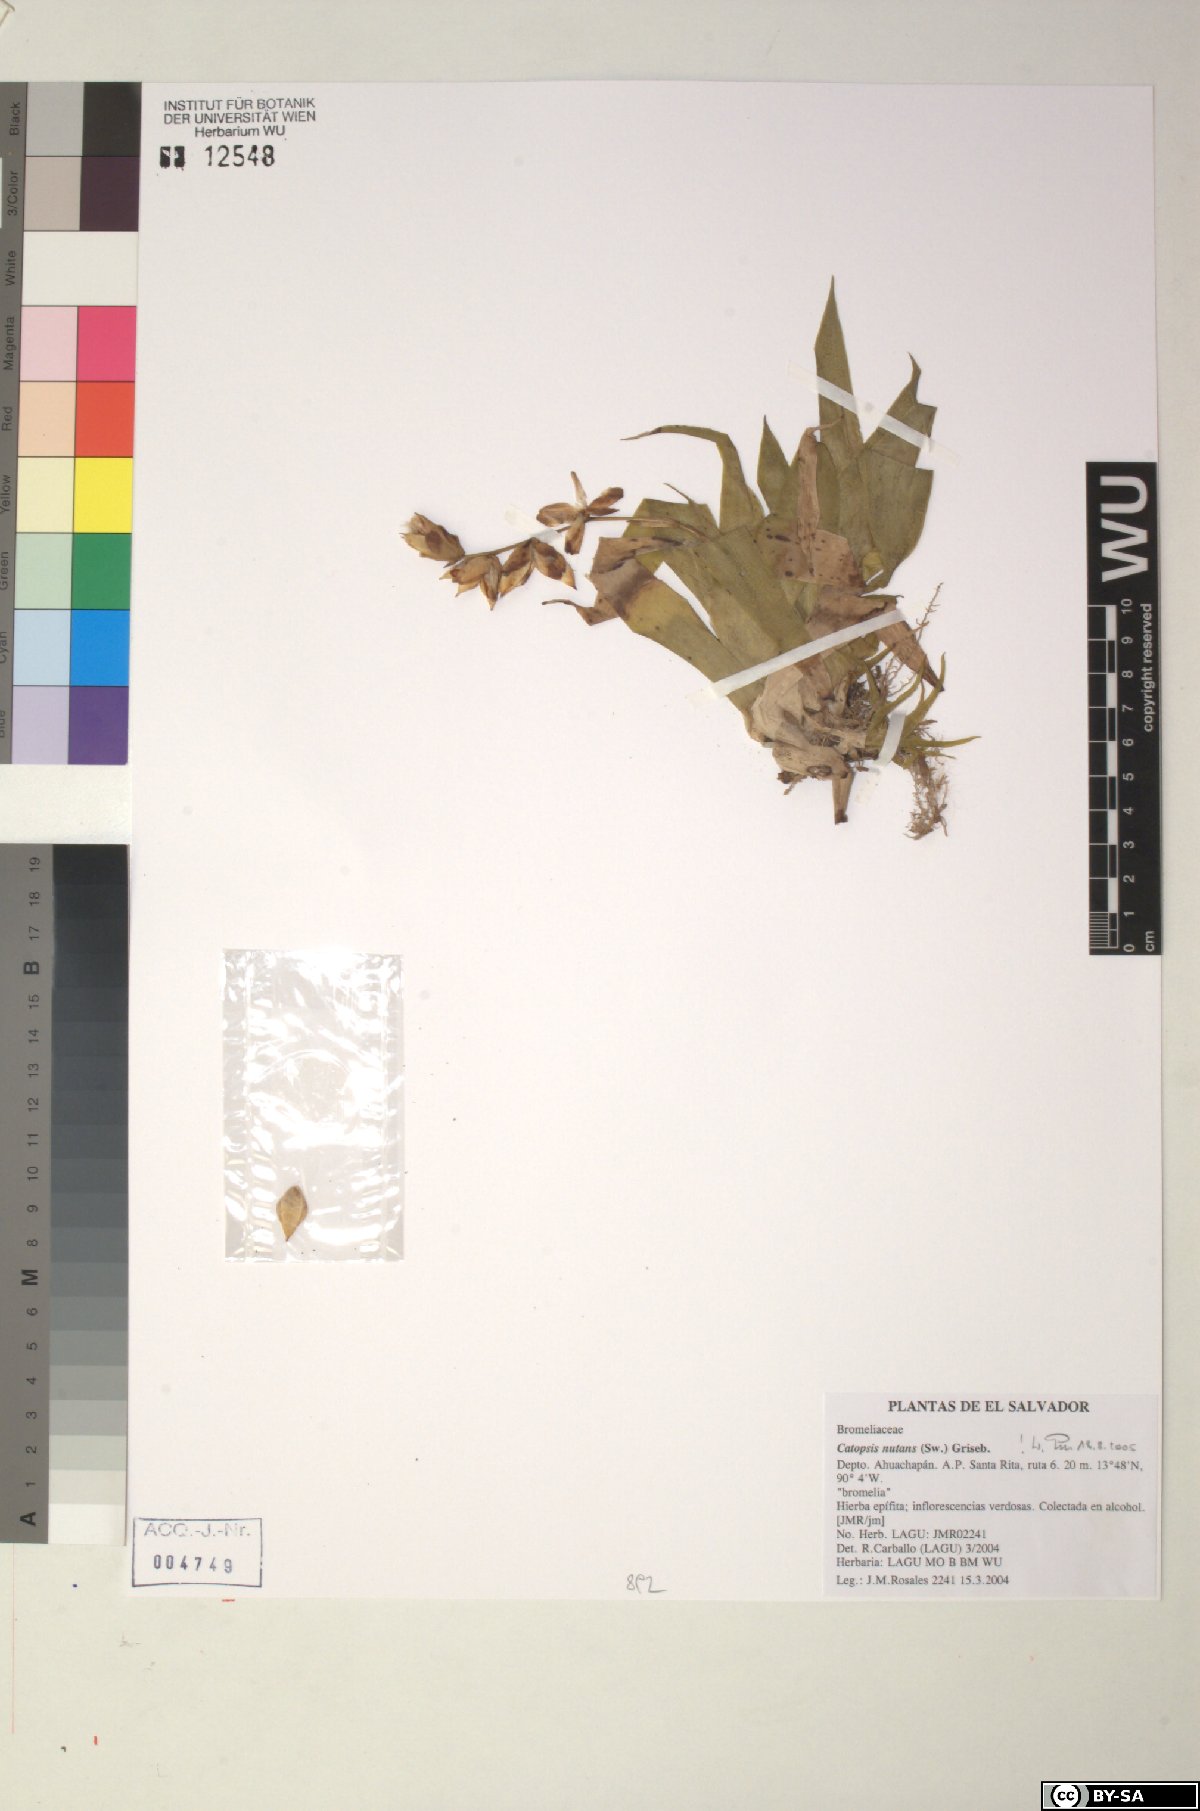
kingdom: Plantae
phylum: Tracheophyta
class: Liliopsida
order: Poales
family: Bromeliaceae
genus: Catopsis
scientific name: Catopsis nutans
